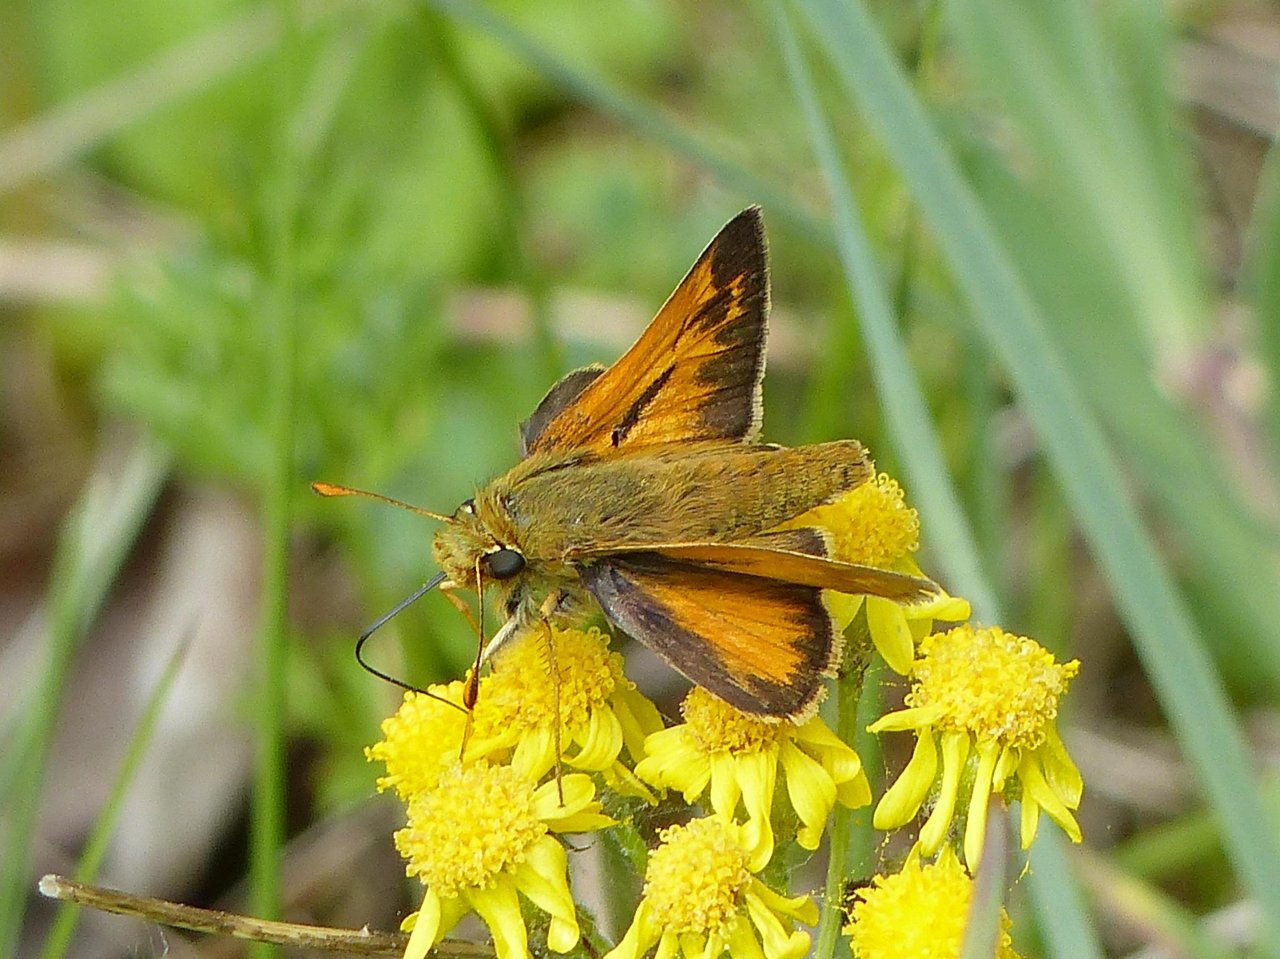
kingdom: Animalia
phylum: Arthropoda
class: Insecta
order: Lepidoptera
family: Hesperiidae
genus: Hesperia
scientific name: Hesperia sassacus
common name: Sassacus Skipper
